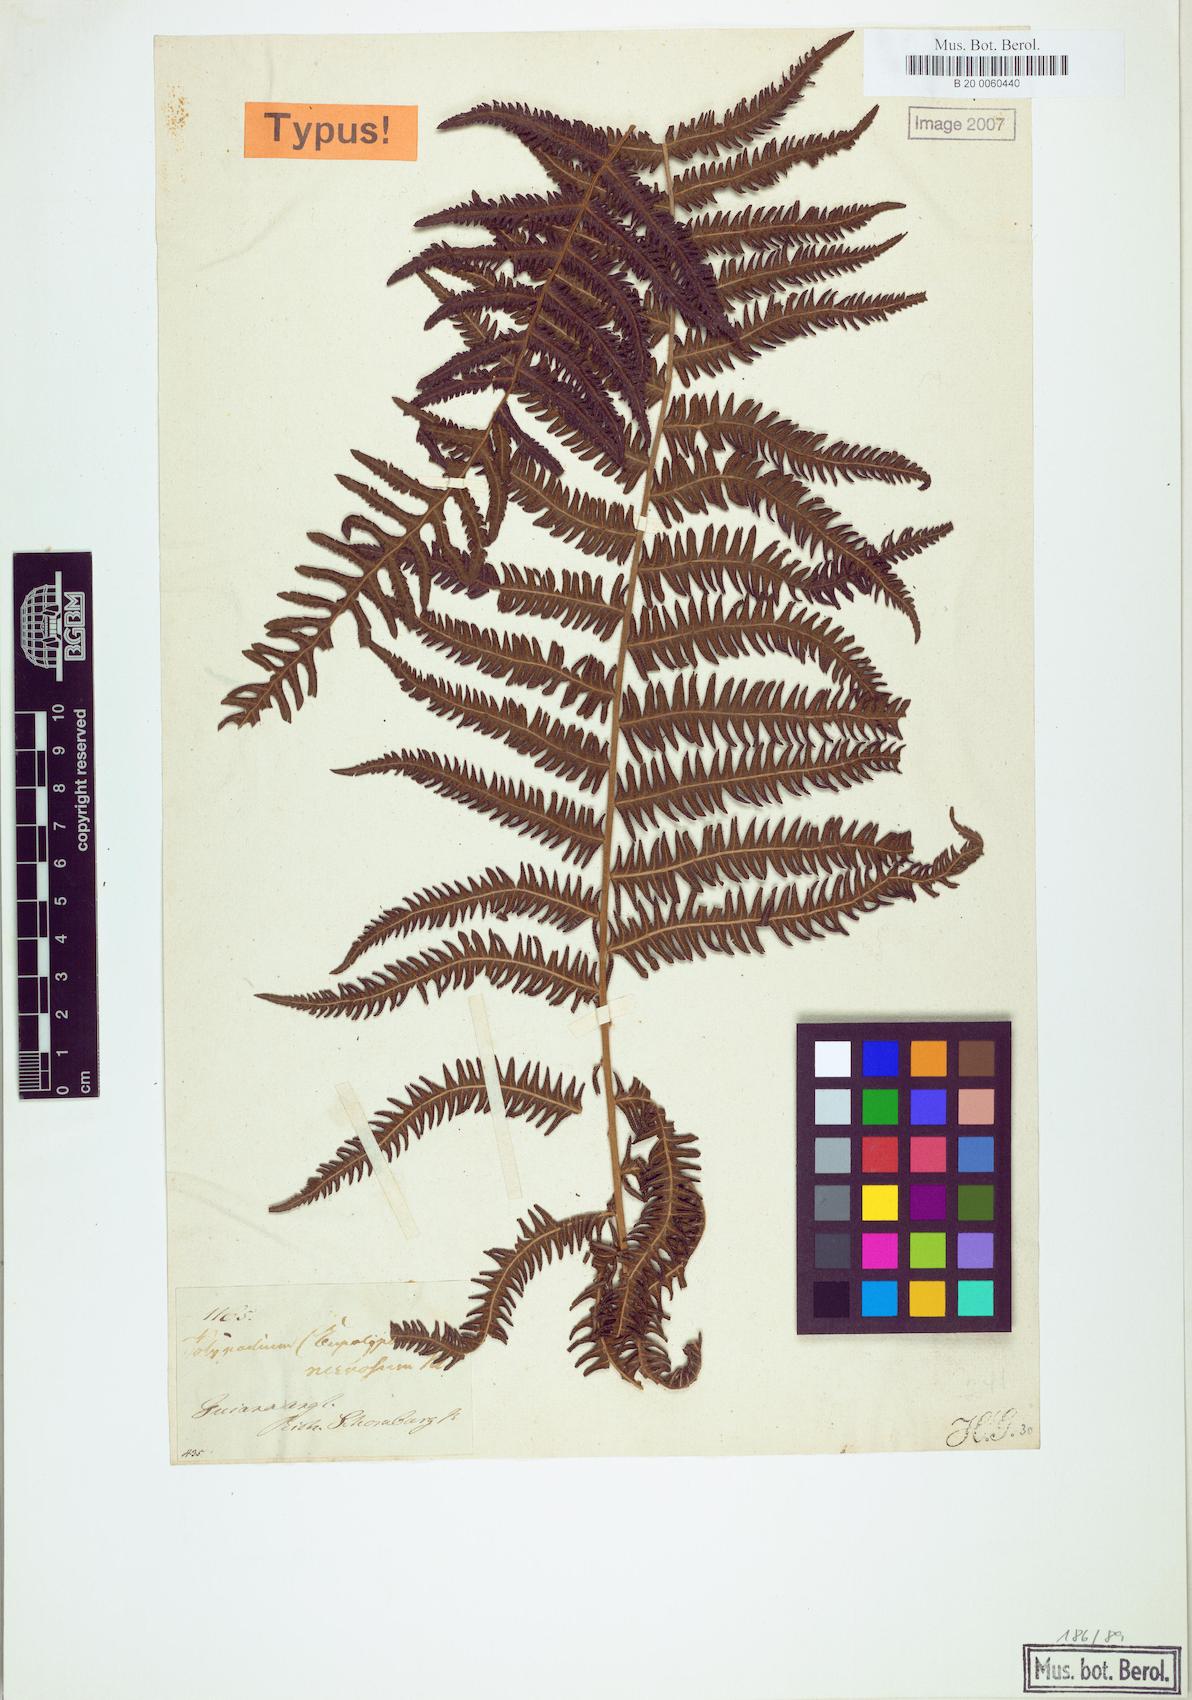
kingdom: Plantae
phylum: Tracheophyta
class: Polypodiopsida
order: Polypodiales
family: Thelypteridaceae
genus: Amauropelta
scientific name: Amauropelta rudis
